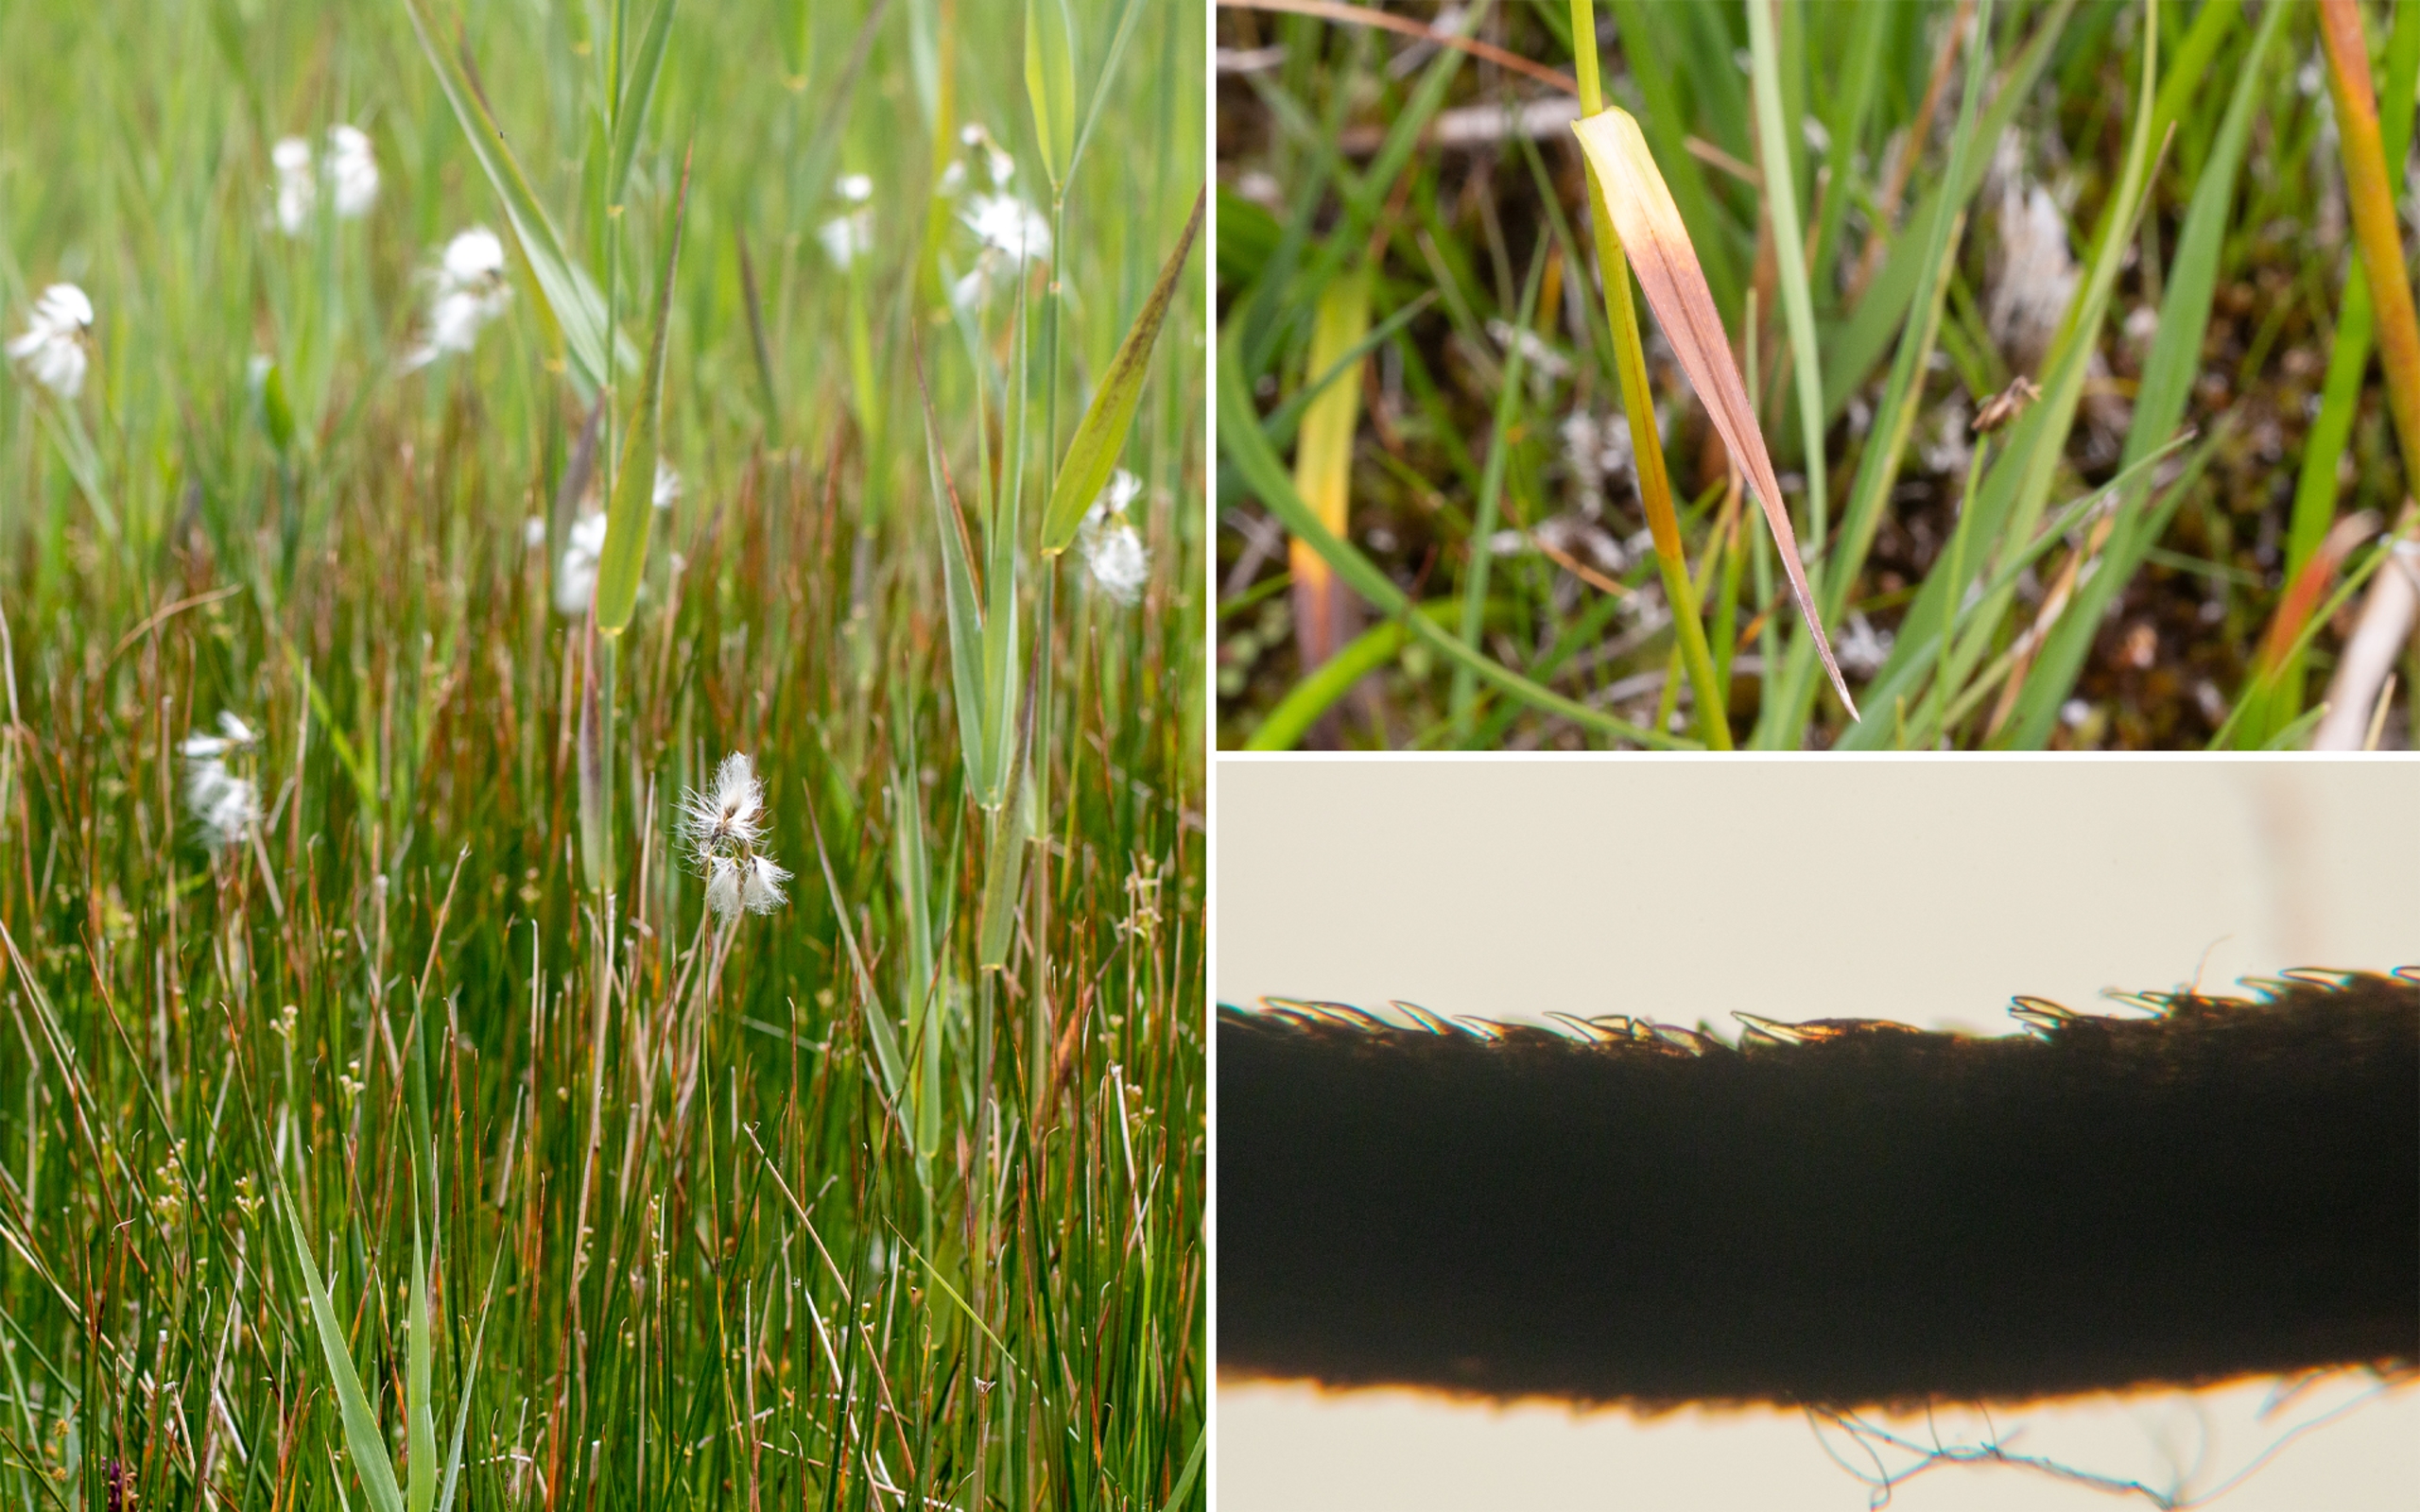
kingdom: Plantae
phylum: Tracheophyta
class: Liliopsida
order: Poales
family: Cyperaceae
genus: Eriophorum
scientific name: Eriophorum latifolium
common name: Bredbladet kæruld
